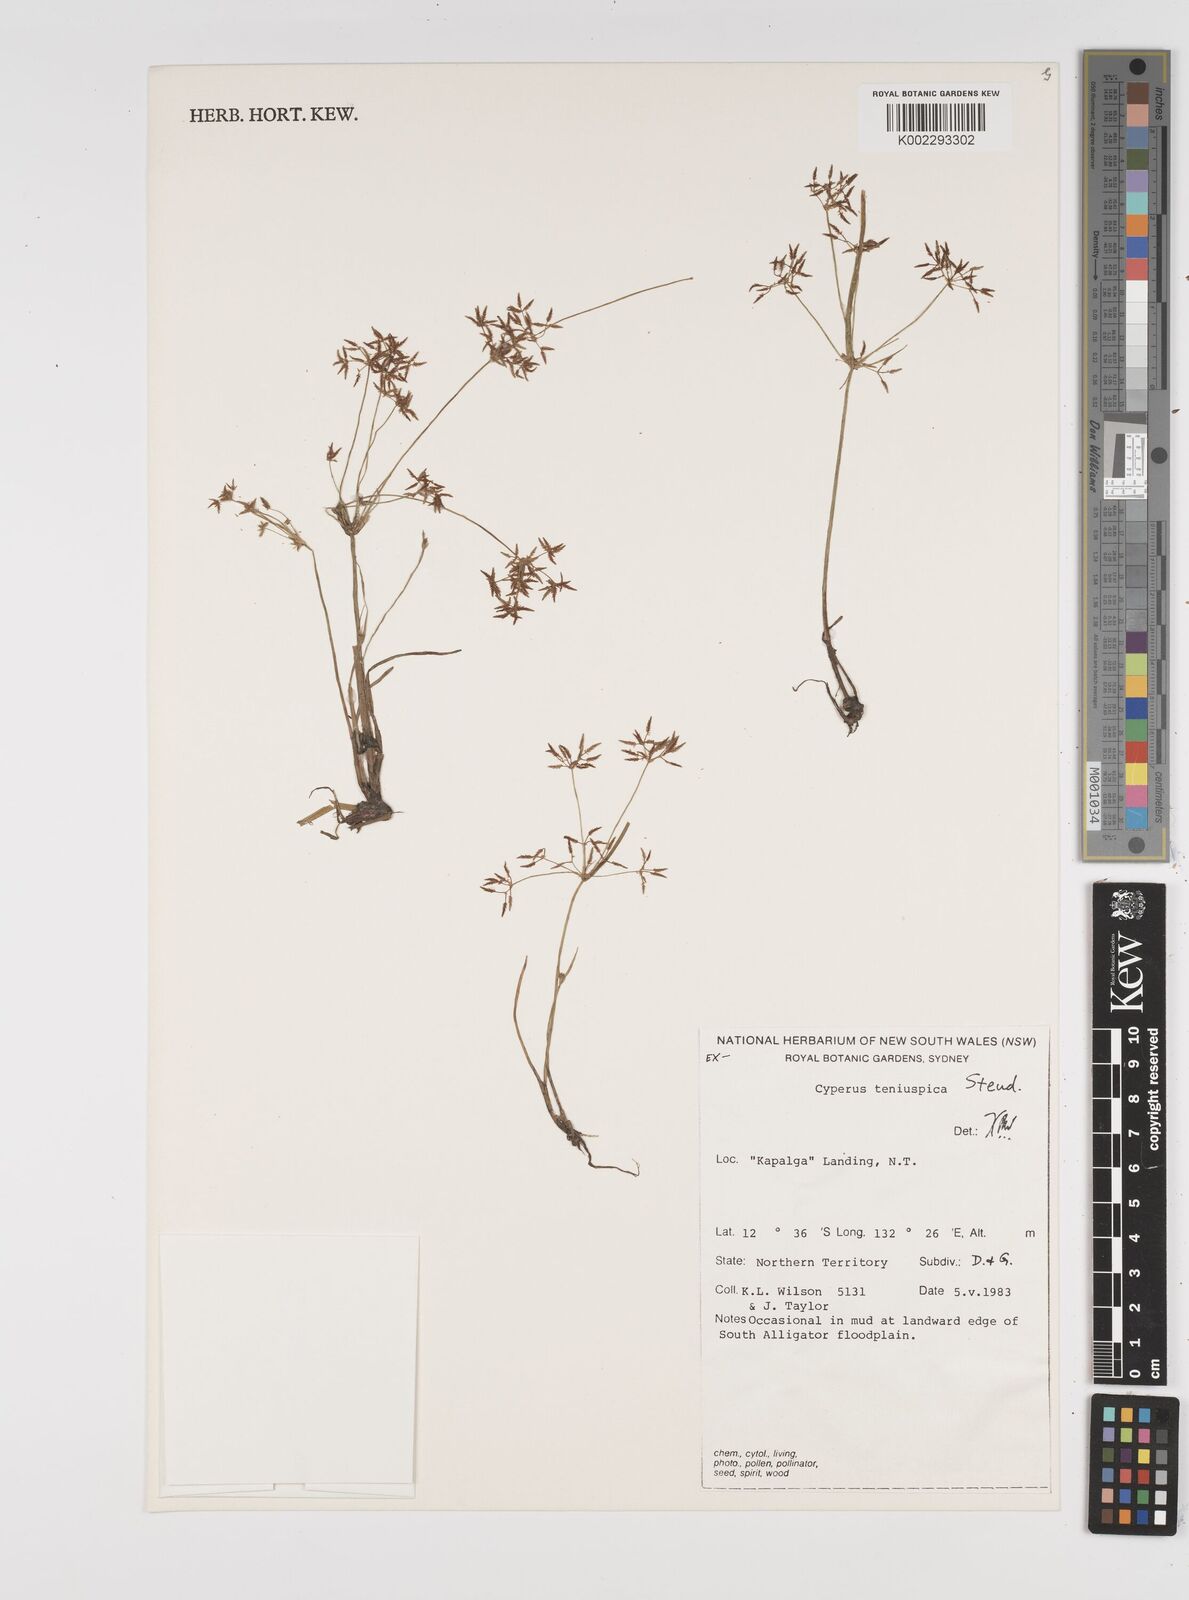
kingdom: Plantae
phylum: Tracheophyta
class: Liliopsida
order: Poales
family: Cyperaceae
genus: Cyperus
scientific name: Cyperus tenuispica
